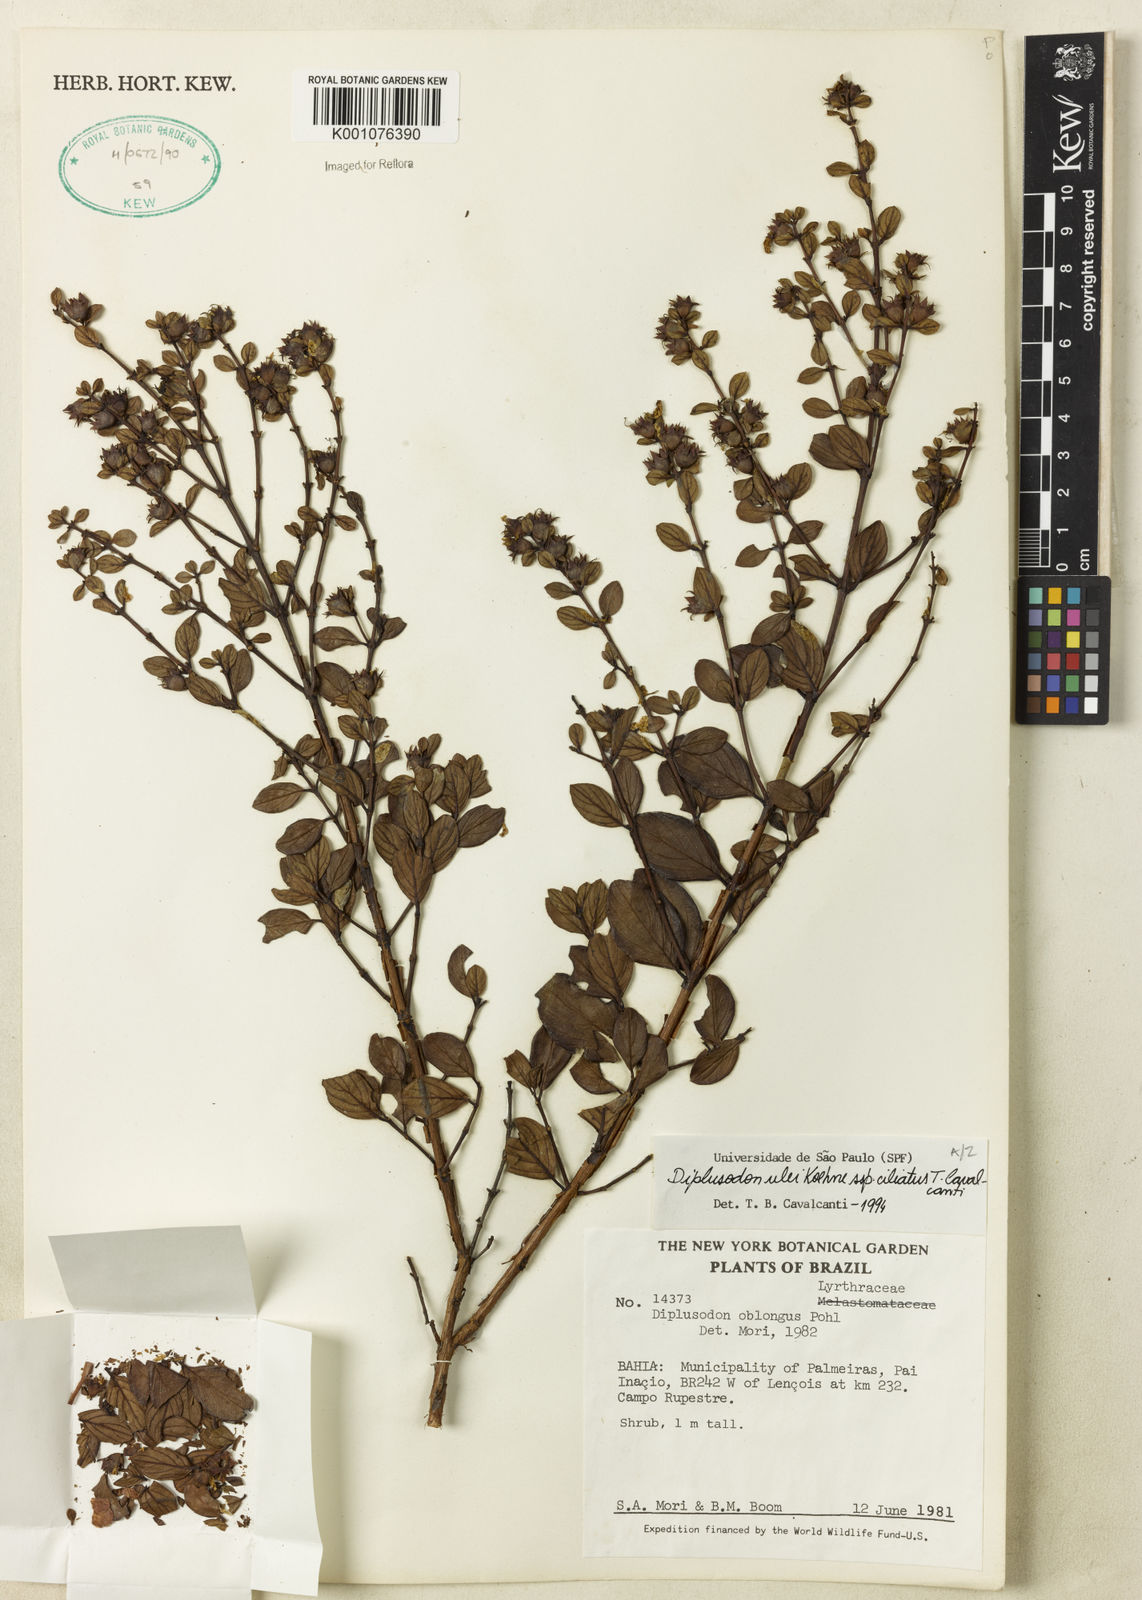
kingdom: Plantae
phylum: Tracheophyta
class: Magnoliopsida
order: Myrtales
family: Lythraceae
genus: Diplusodon
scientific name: Diplusodon ulei
